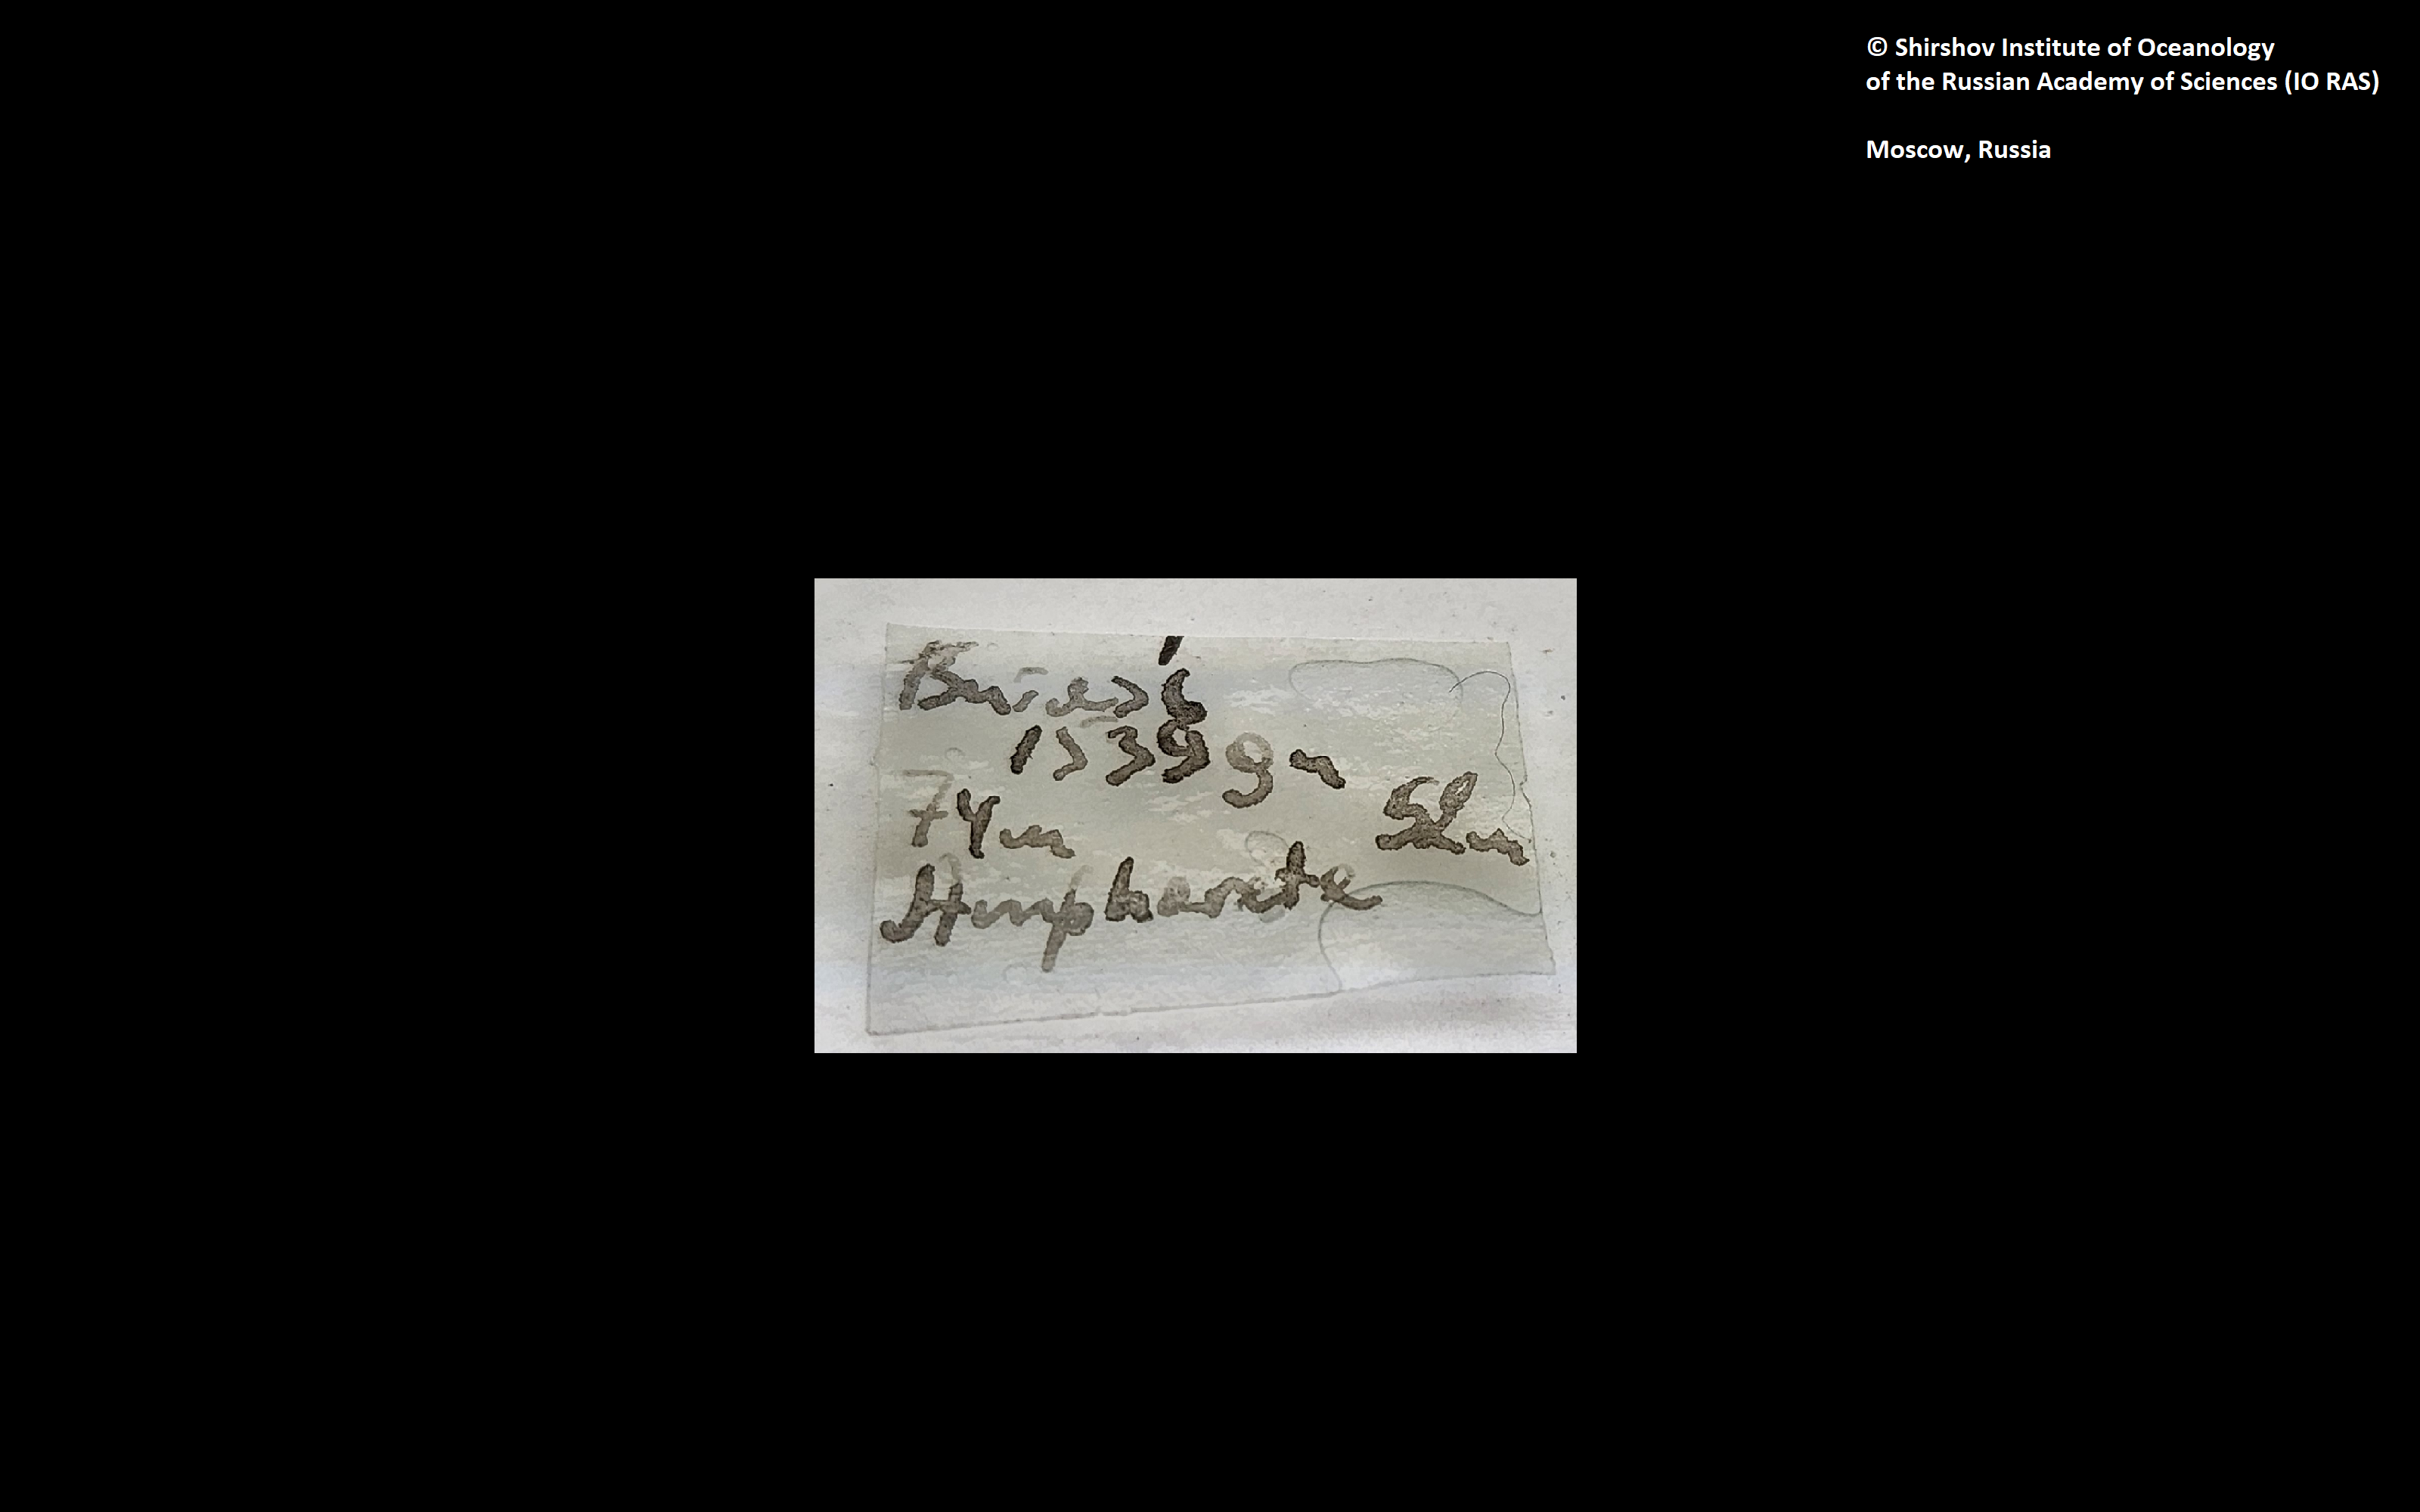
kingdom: Animalia
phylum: Annelida
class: Polychaeta
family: Ampharetidae
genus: Ampharete
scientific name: Ampharete
